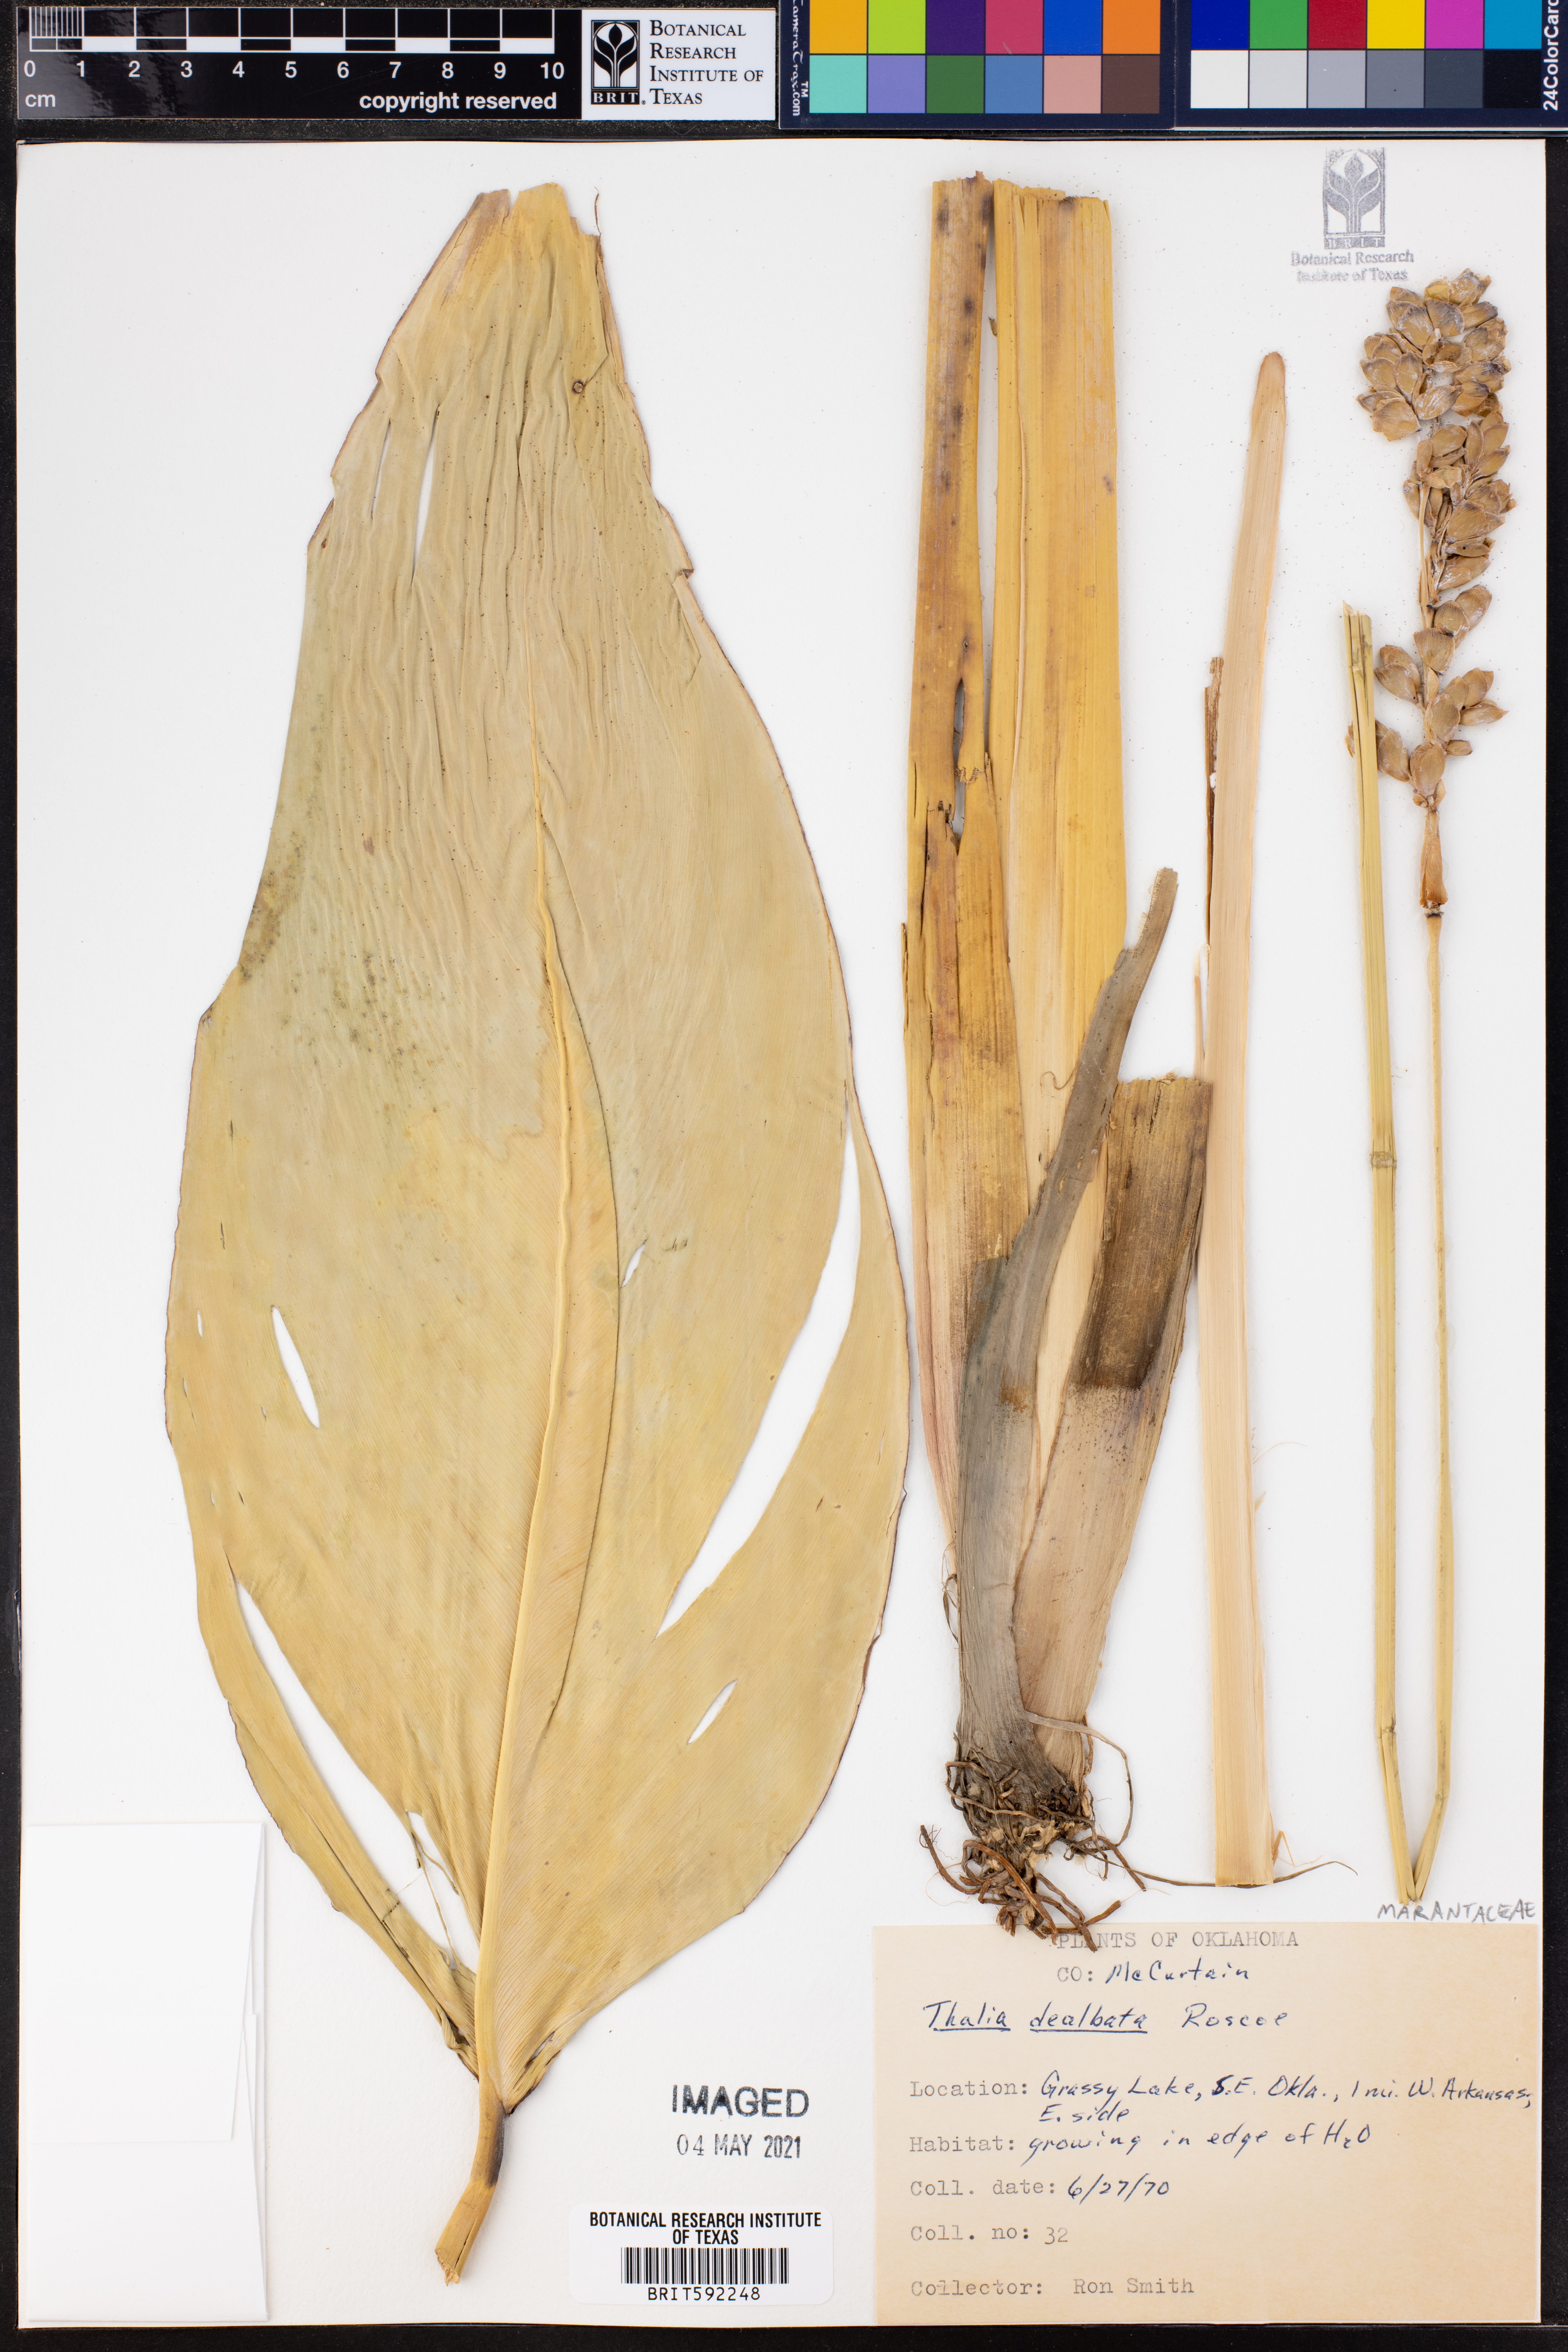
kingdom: Plantae
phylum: Tracheophyta
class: Liliopsida
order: Zingiberales
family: Marantaceae
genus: Thalia
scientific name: Thalia dealbata
